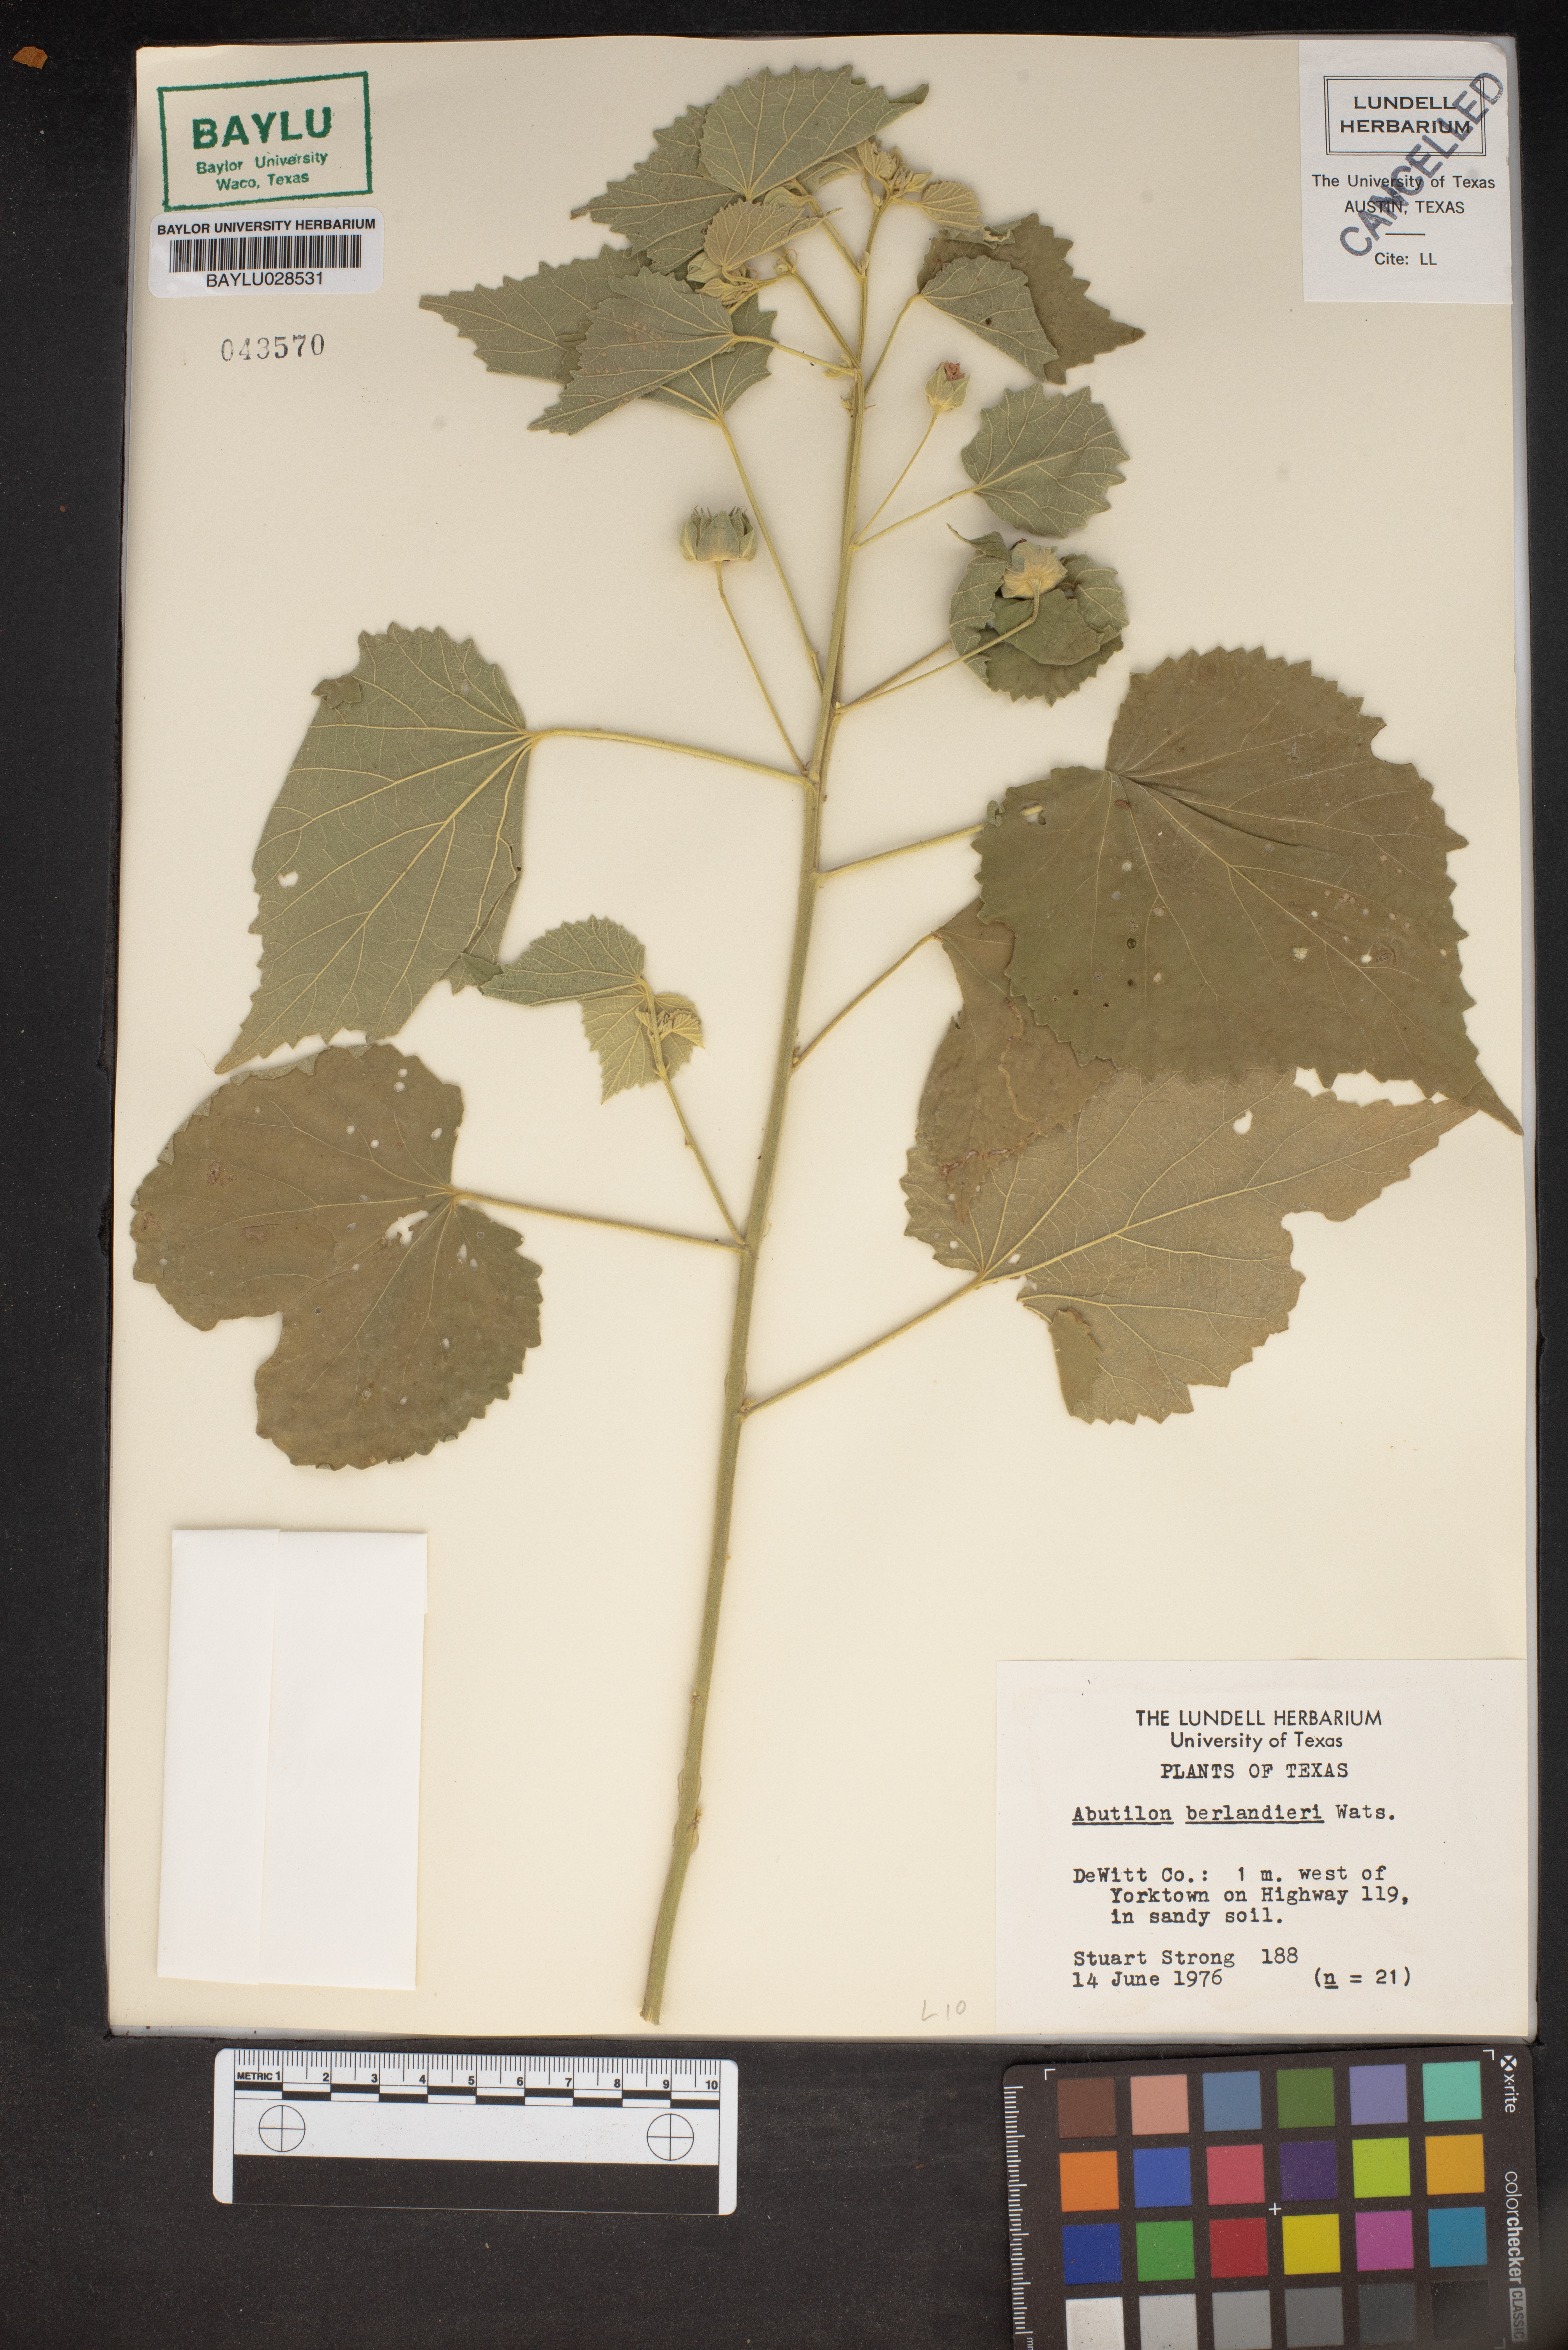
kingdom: Plantae
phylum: Tracheophyta
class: Magnoliopsida
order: Malvales
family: Malvaceae
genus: Abutilon
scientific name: Abutilon berlandieri
